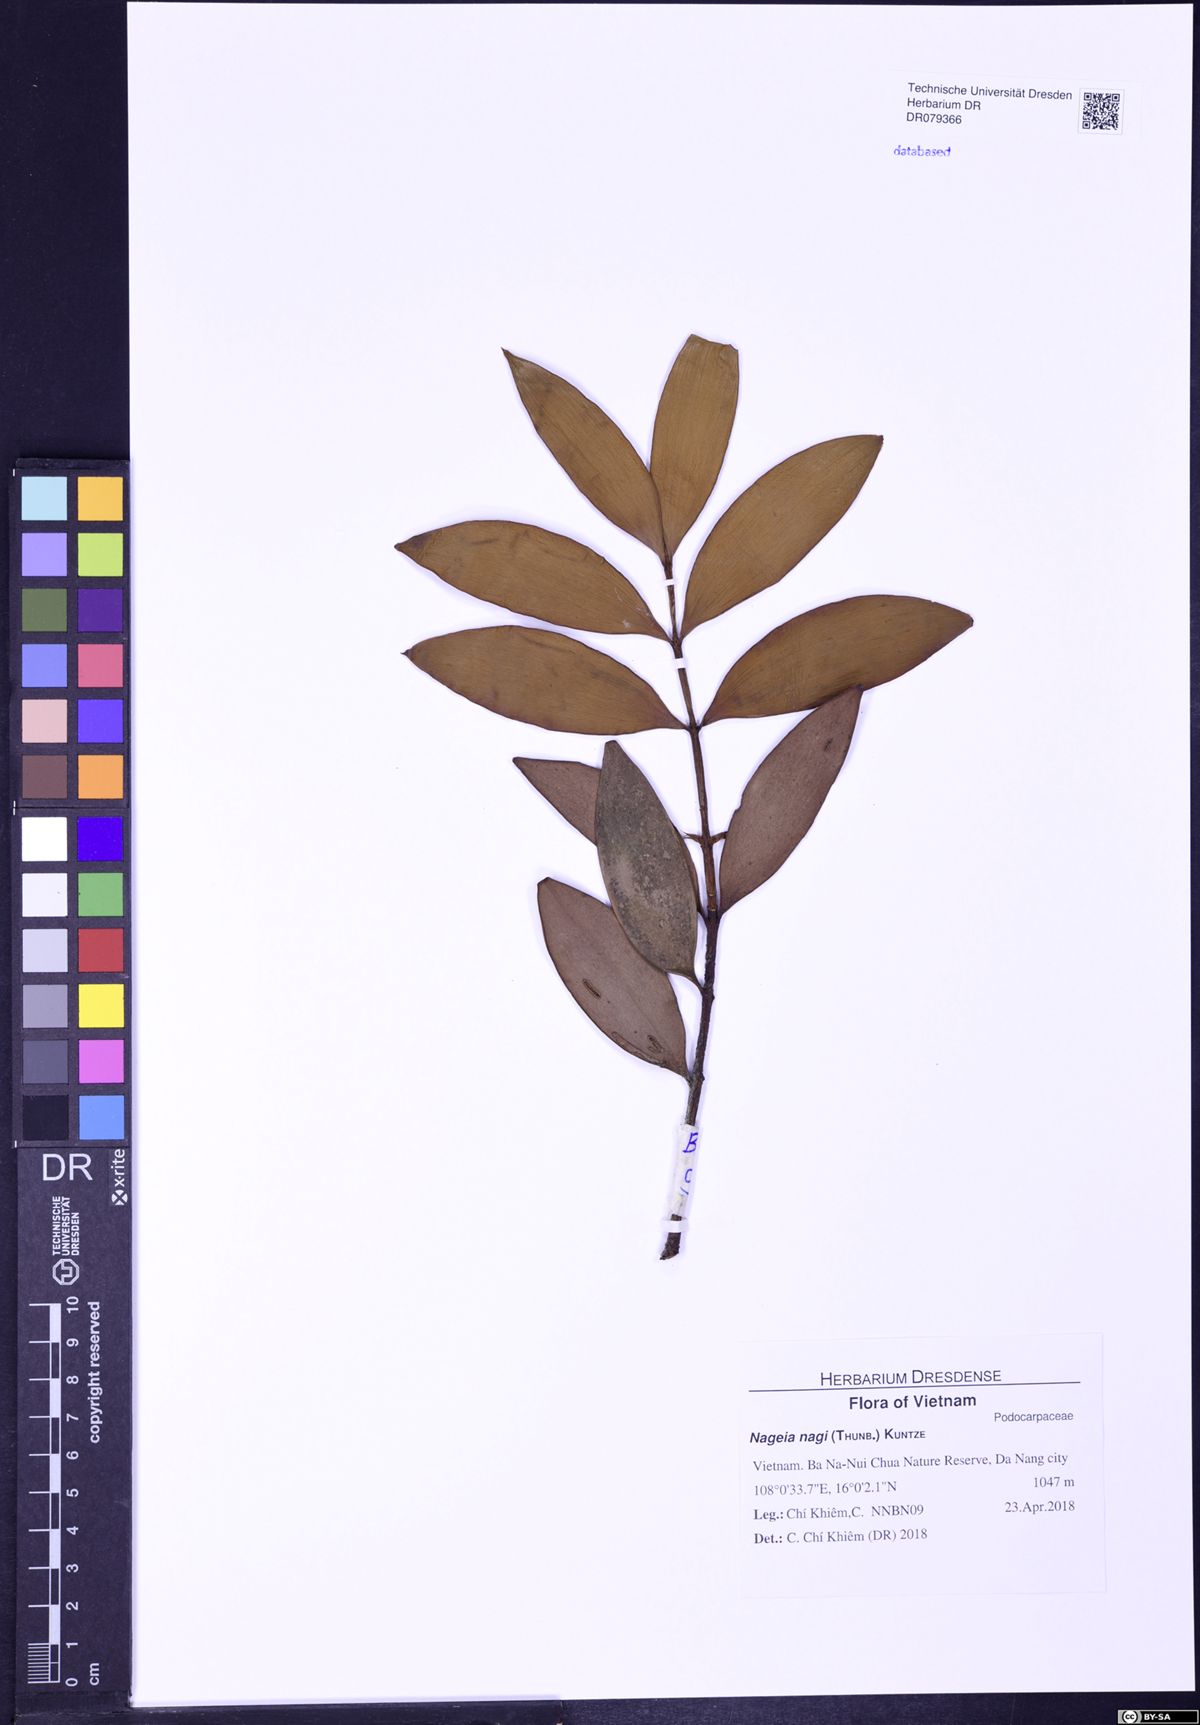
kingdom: Plantae
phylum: Tracheophyta
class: Pinopsida
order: Pinales
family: Podocarpaceae
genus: Nageia
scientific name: Nageia nagi
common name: Kaphal
